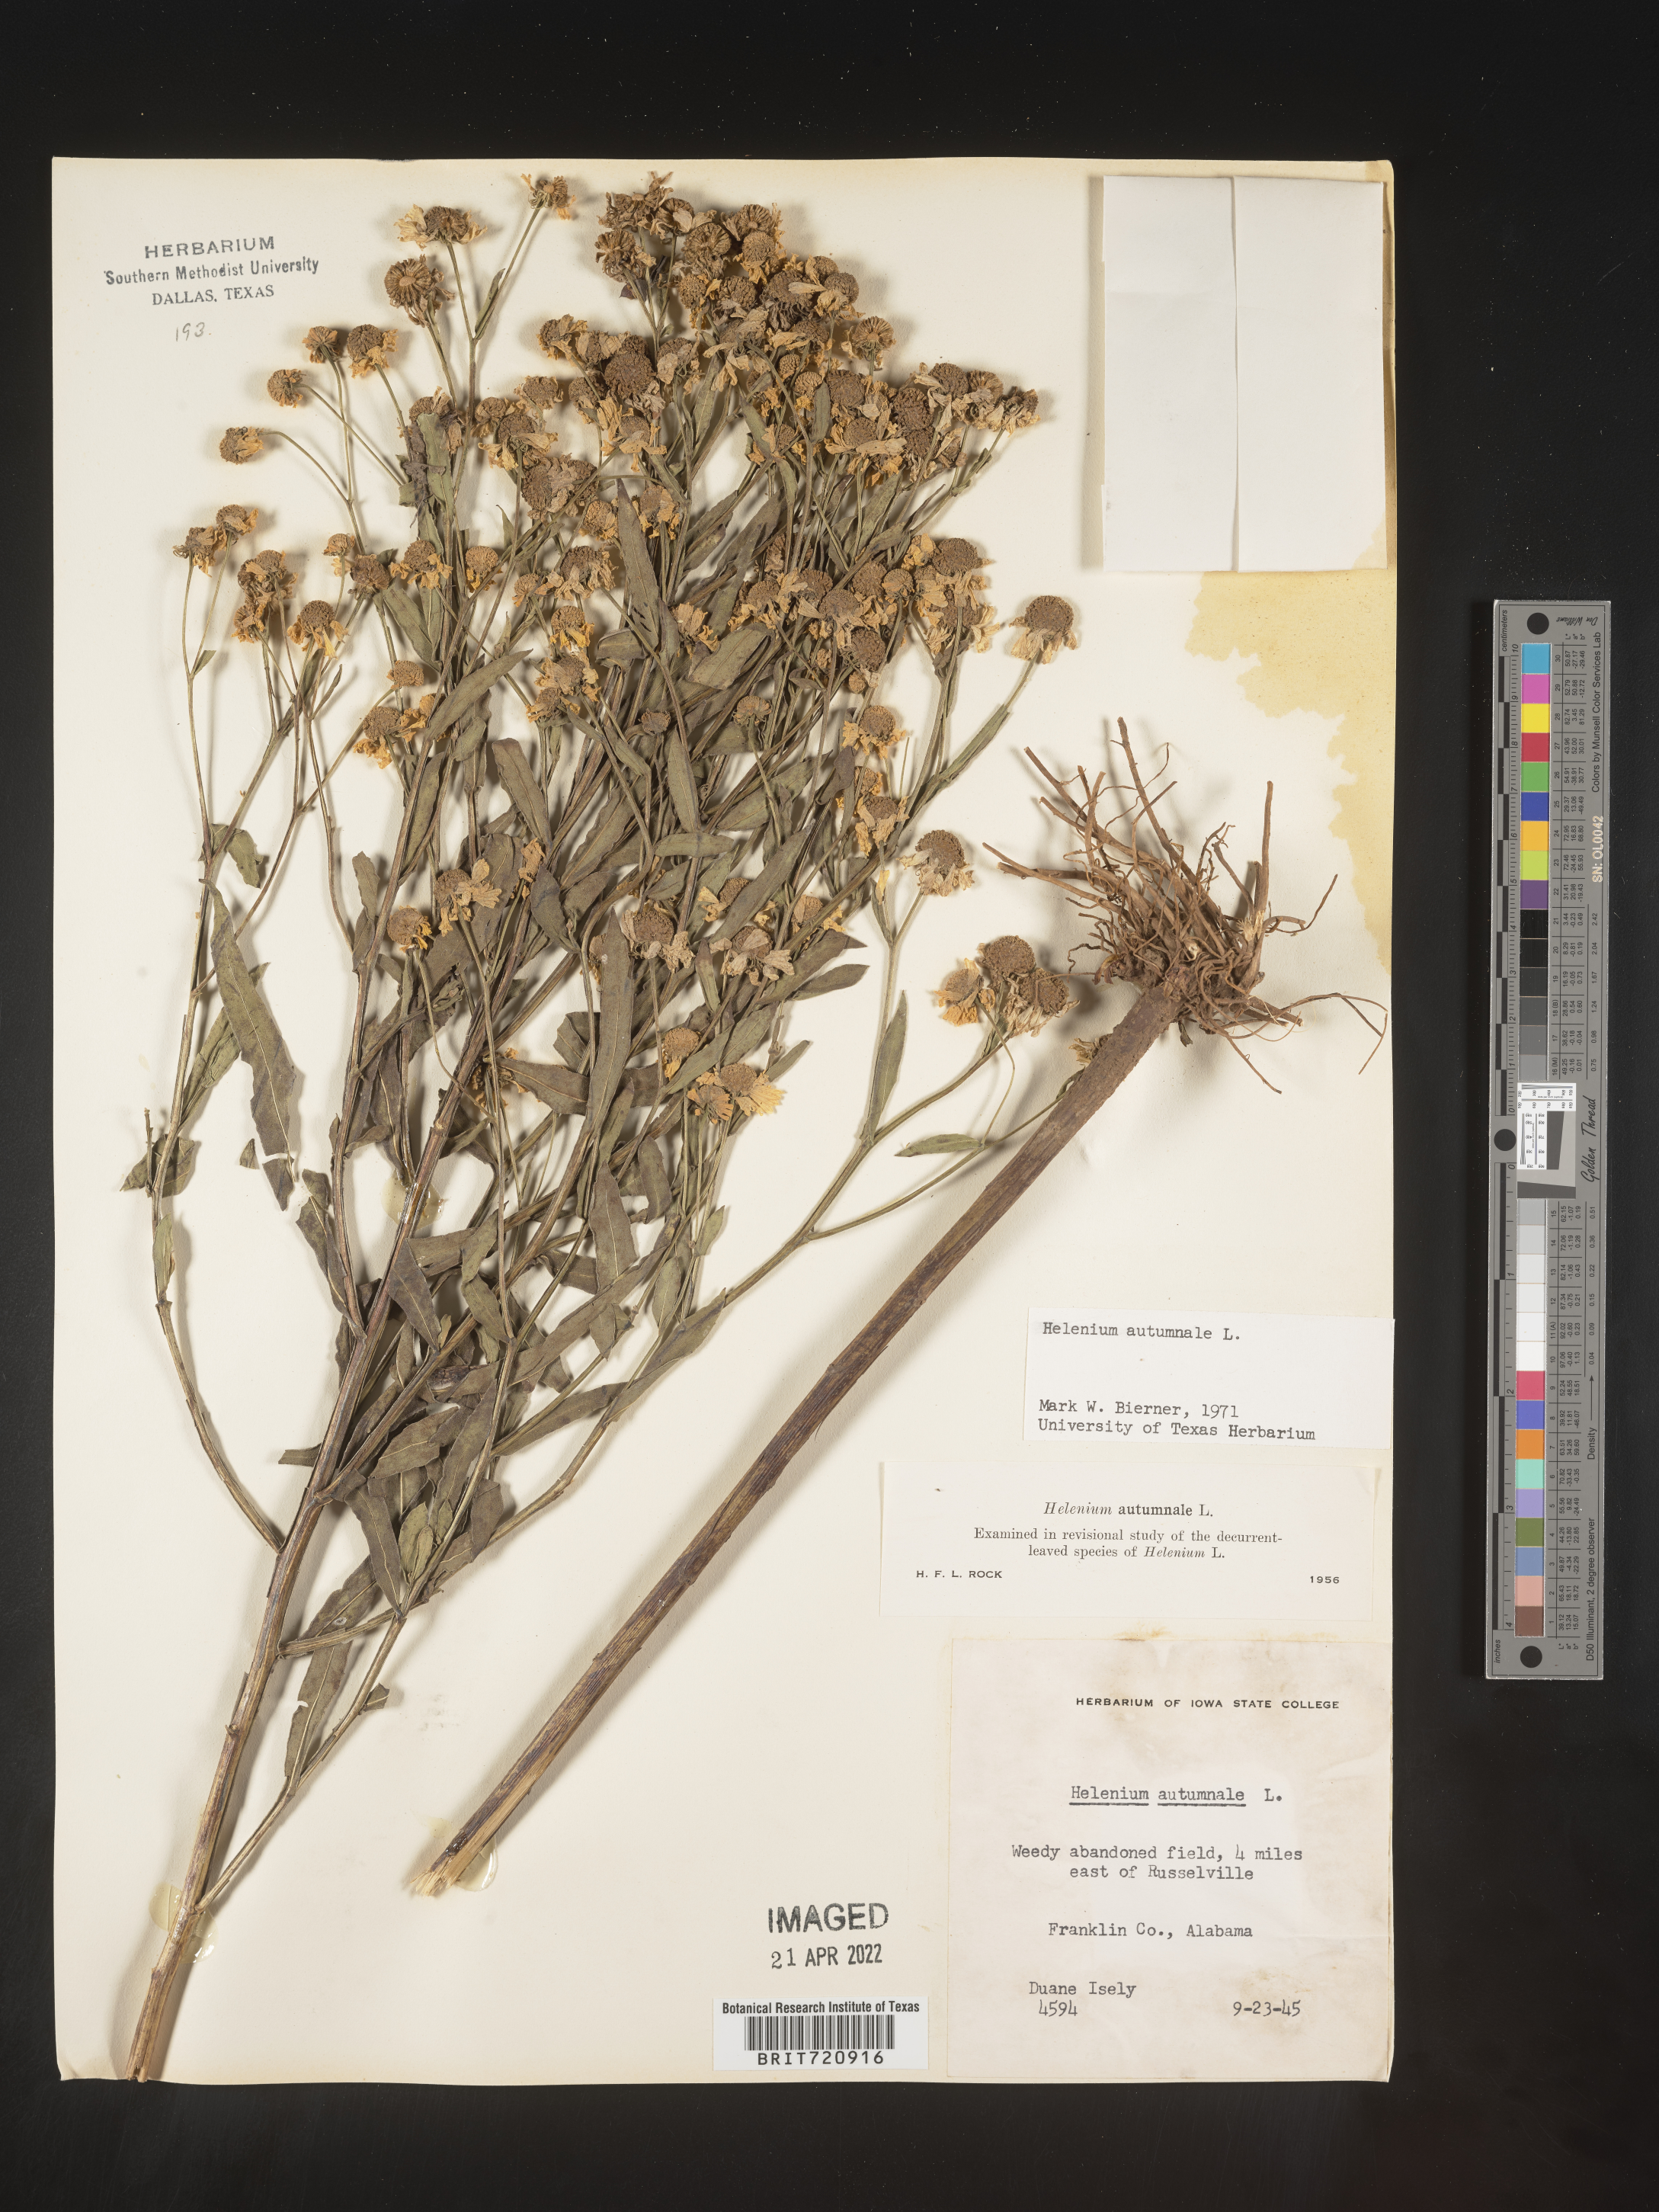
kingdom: Plantae
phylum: Tracheophyta
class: Magnoliopsida
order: Asterales
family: Asteraceae
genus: Helenium
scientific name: Helenium autumnale
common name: Sneezeweed
